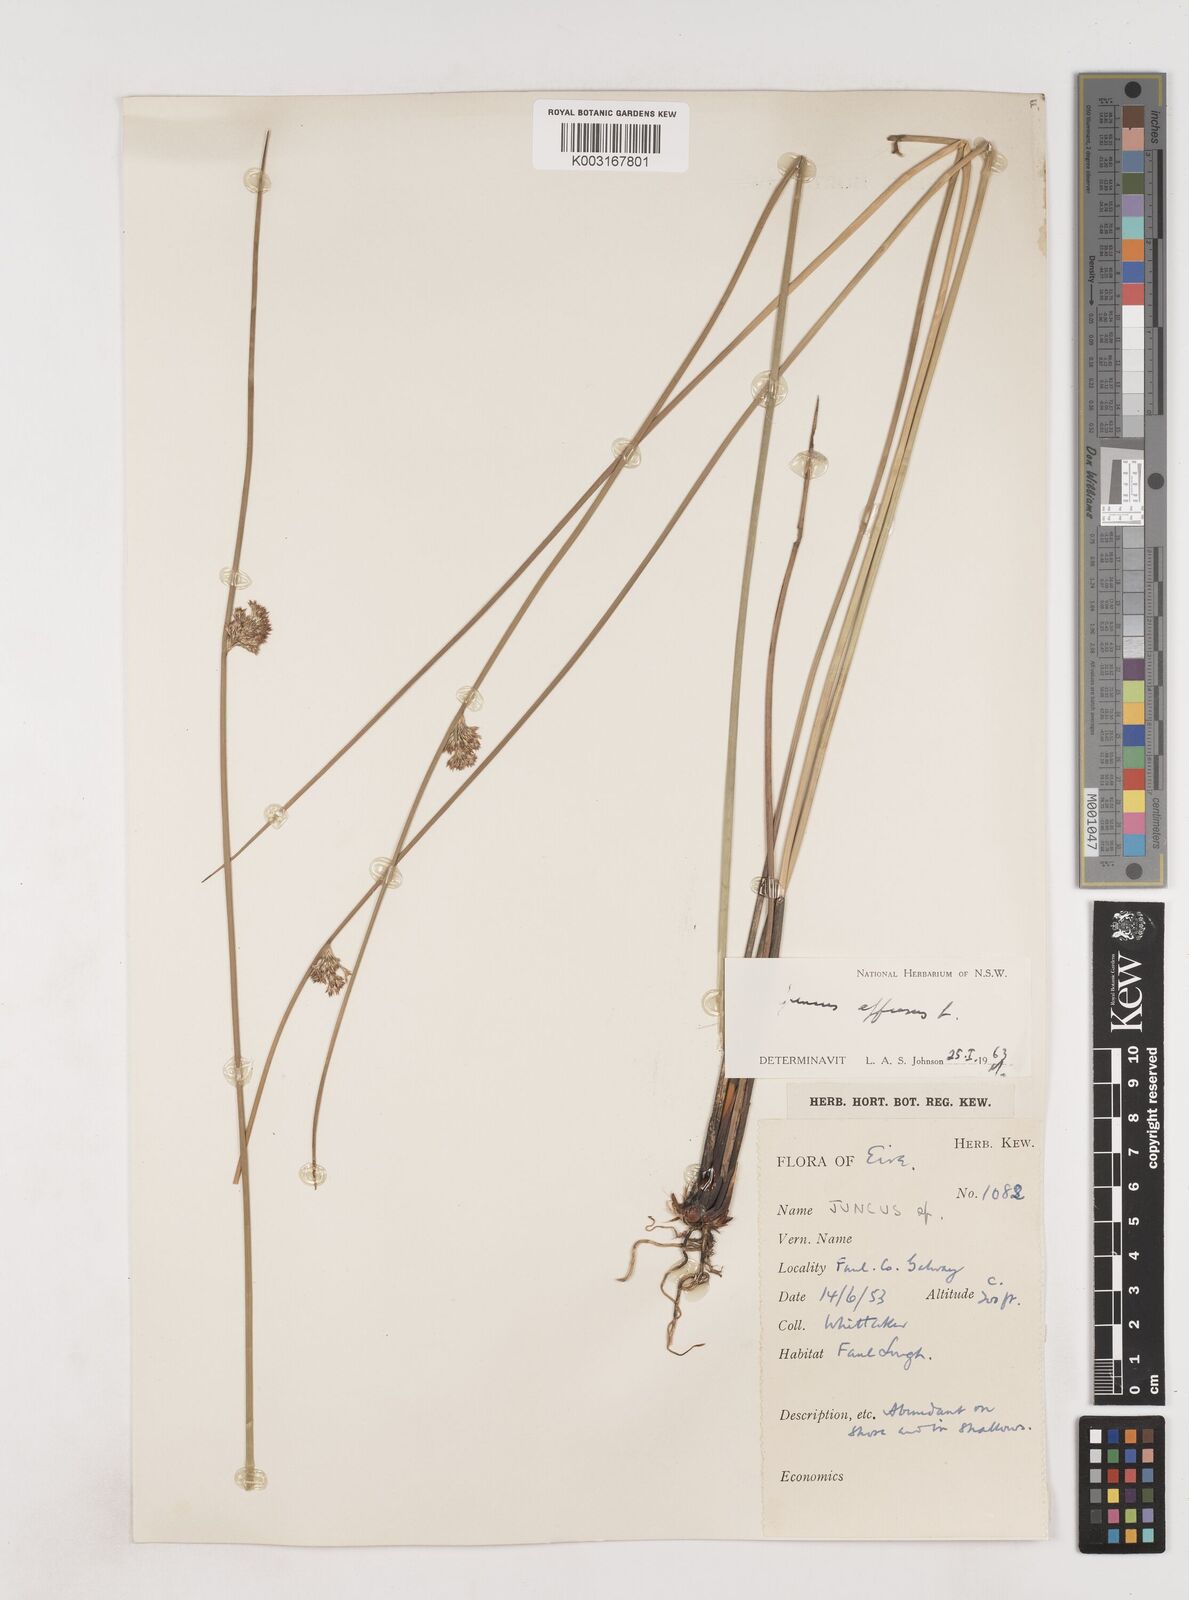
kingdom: Plantae
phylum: Tracheophyta
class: Liliopsida
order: Poales
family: Juncaceae
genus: Juncus
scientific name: Juncus effusus
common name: Soft rush
